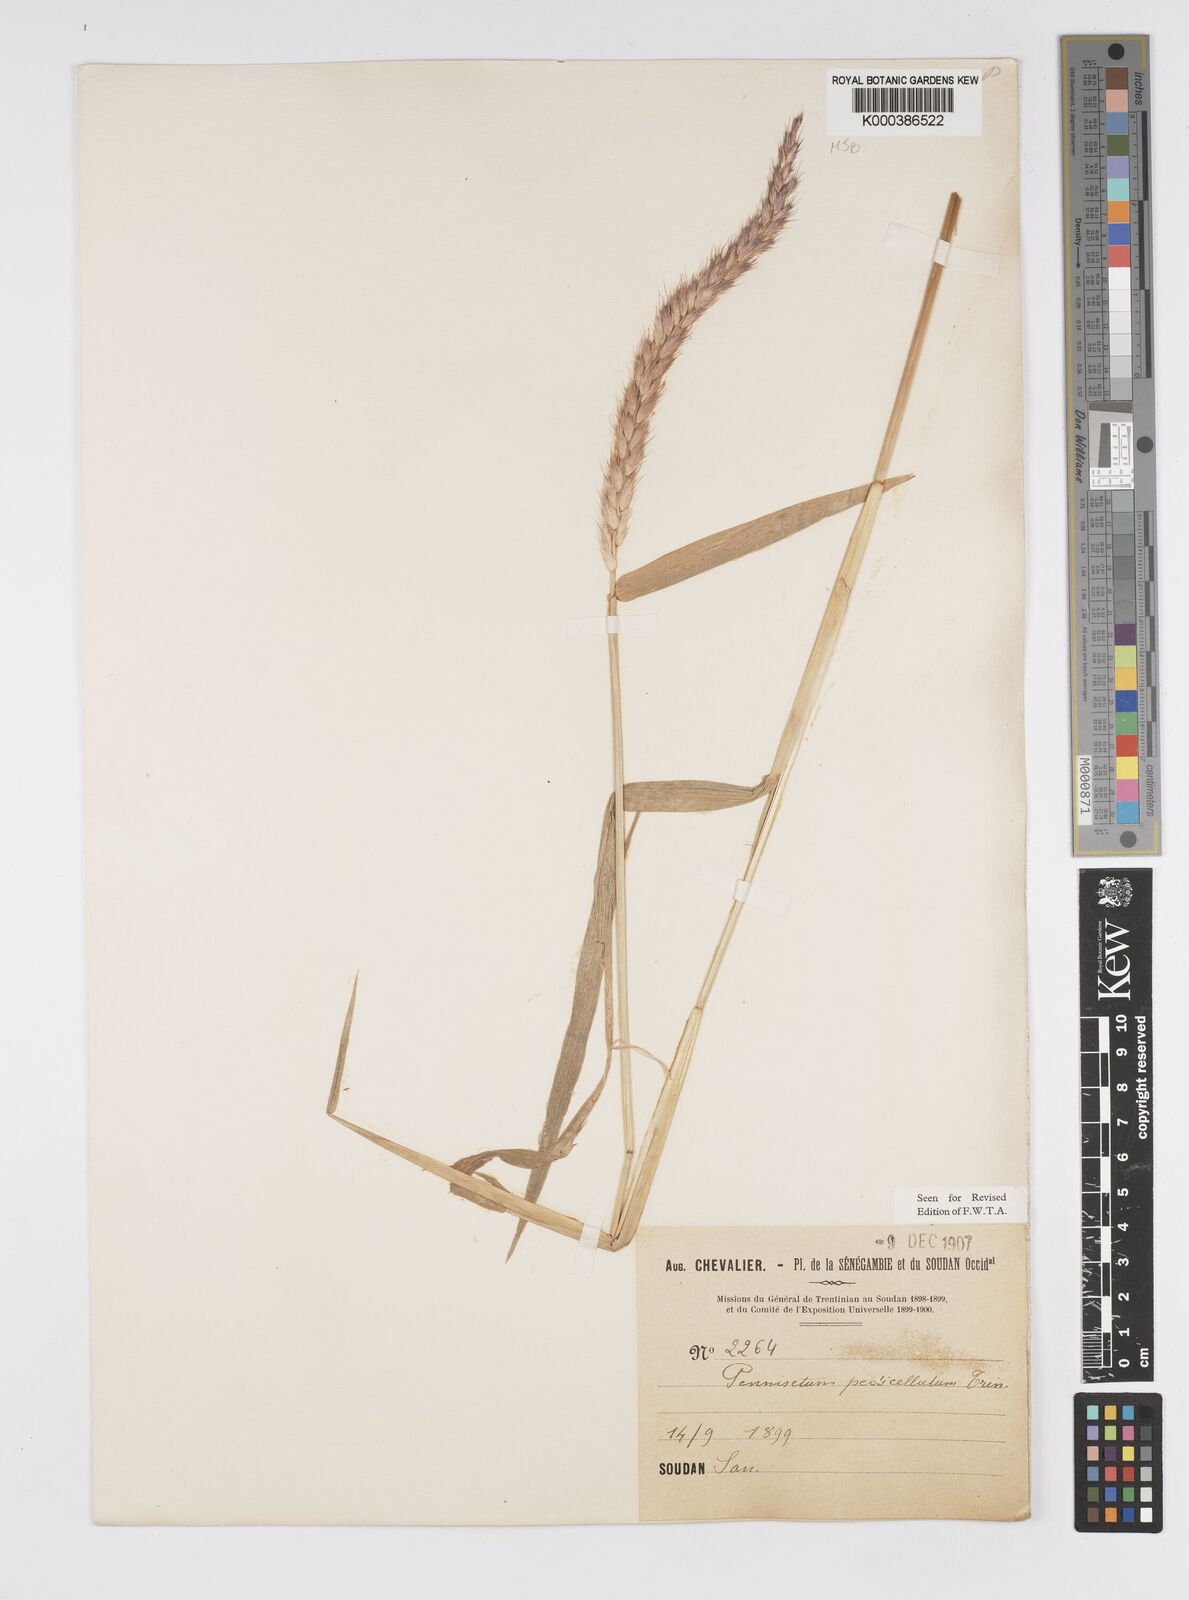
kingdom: Plantae
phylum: Tracheophyta
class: Liliopsida
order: Poales
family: Poaceae
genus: Cenchrus
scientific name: Cenchrus pedicellatus
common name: Hairy fountain grass
